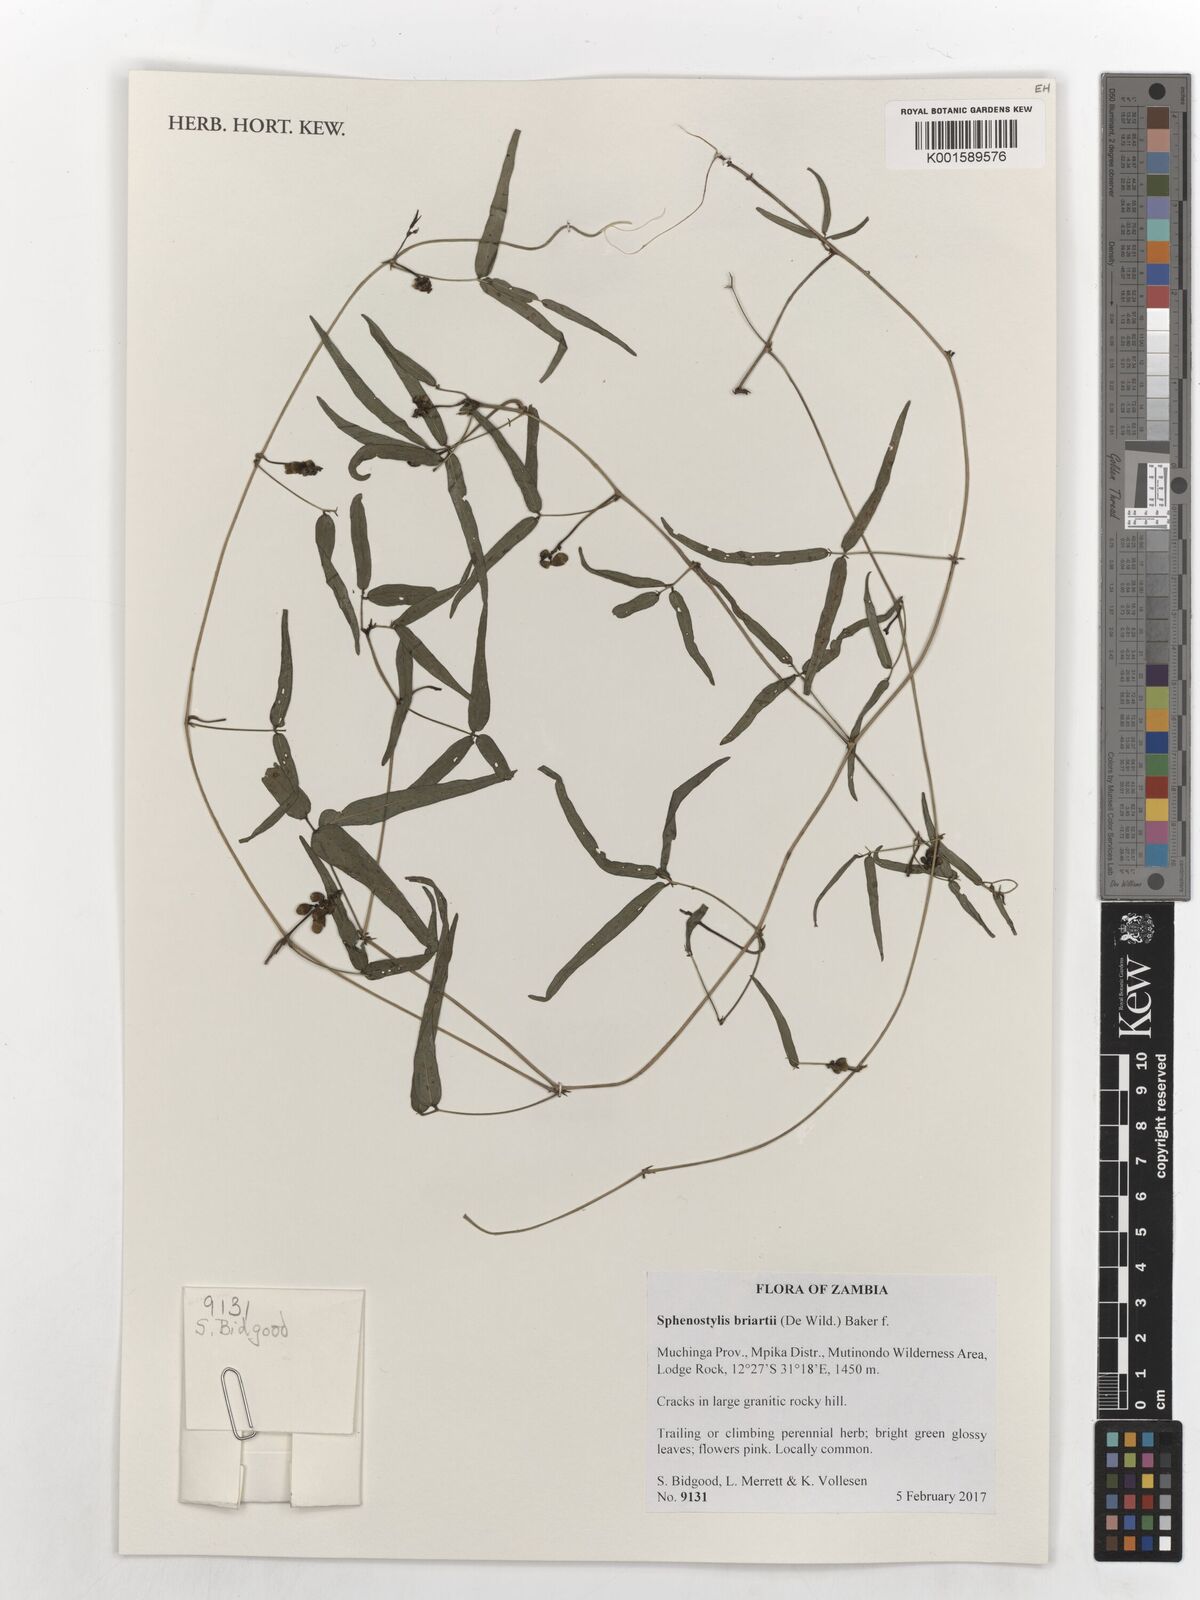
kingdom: Plantae
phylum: Tracheophyta
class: Magnoliopsida
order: Fabales
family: Fabaceae
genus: Sphenostylis
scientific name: Sphenostylis briartii
